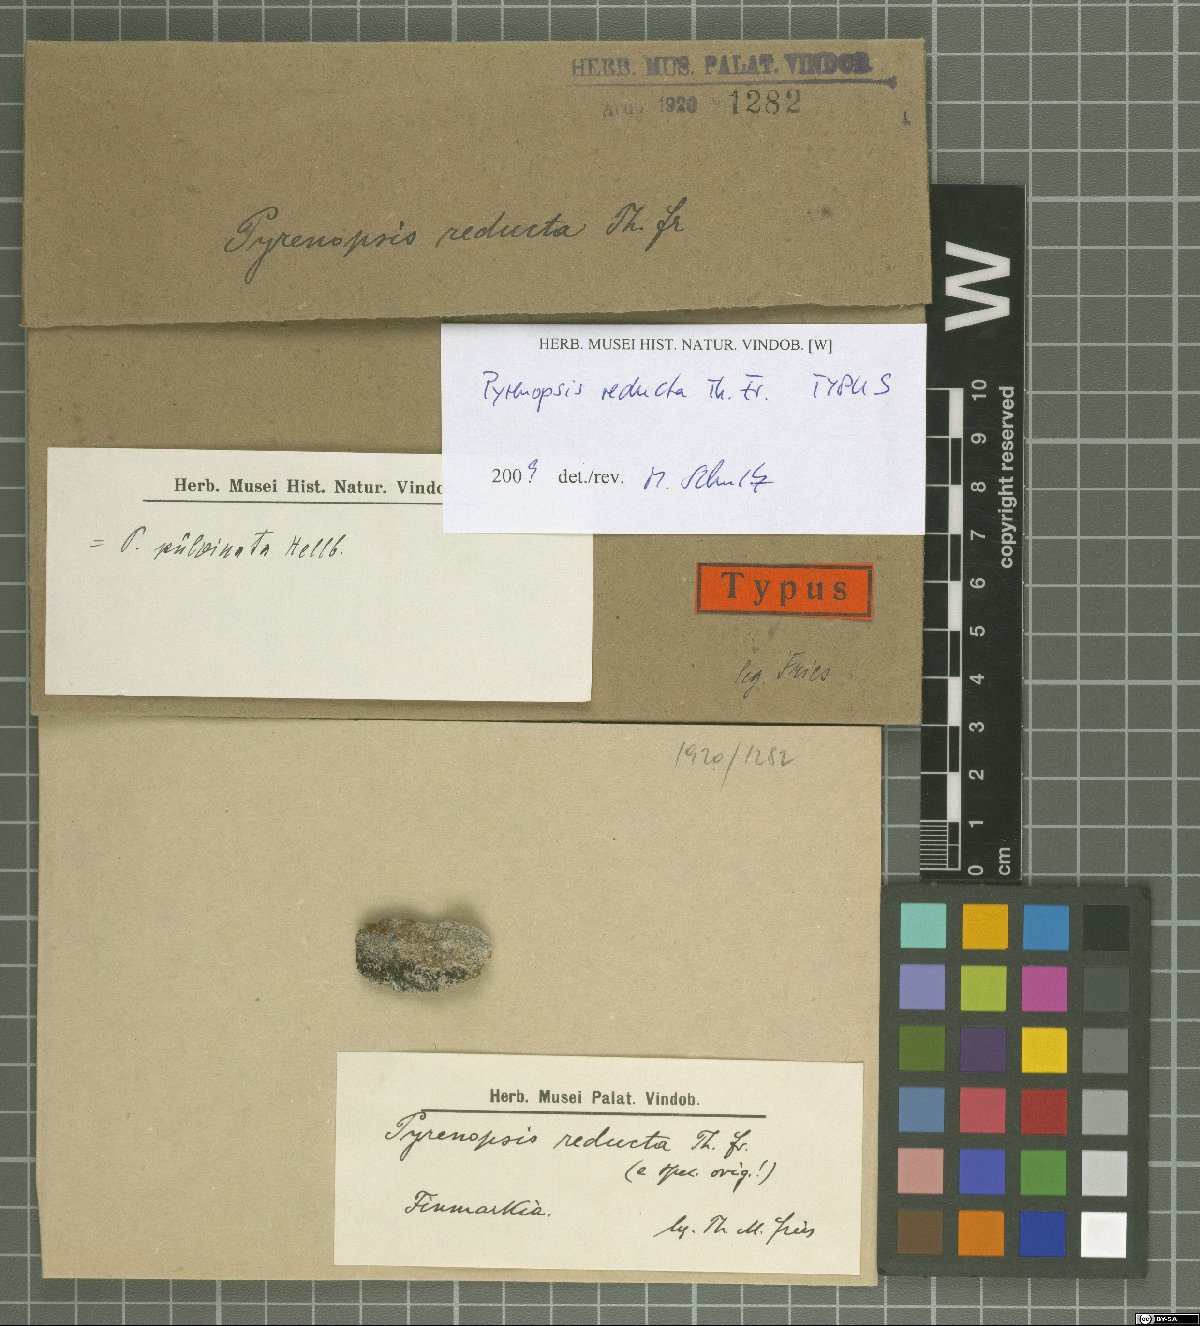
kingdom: Fungi
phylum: Ascomycota
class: Lichinomycetes
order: Lichinales
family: Lichinaceae
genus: Pyrenopsis
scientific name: Pyrenopsis reducta
